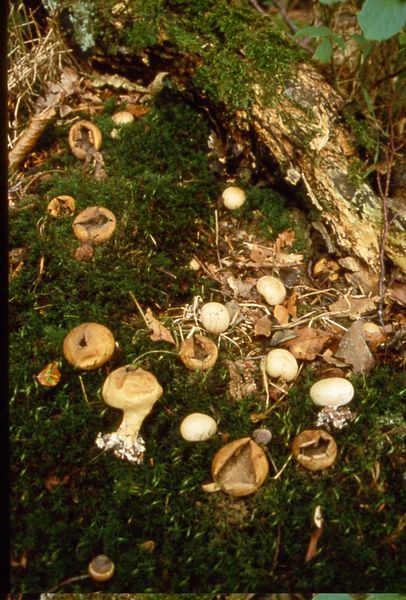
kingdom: Fungi
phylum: Basidiomycota
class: Agaricomycetes
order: Boletales
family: Sclerodermataceae
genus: Scleroderma
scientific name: Scleroderma verrucosum
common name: stilket bruskbold
